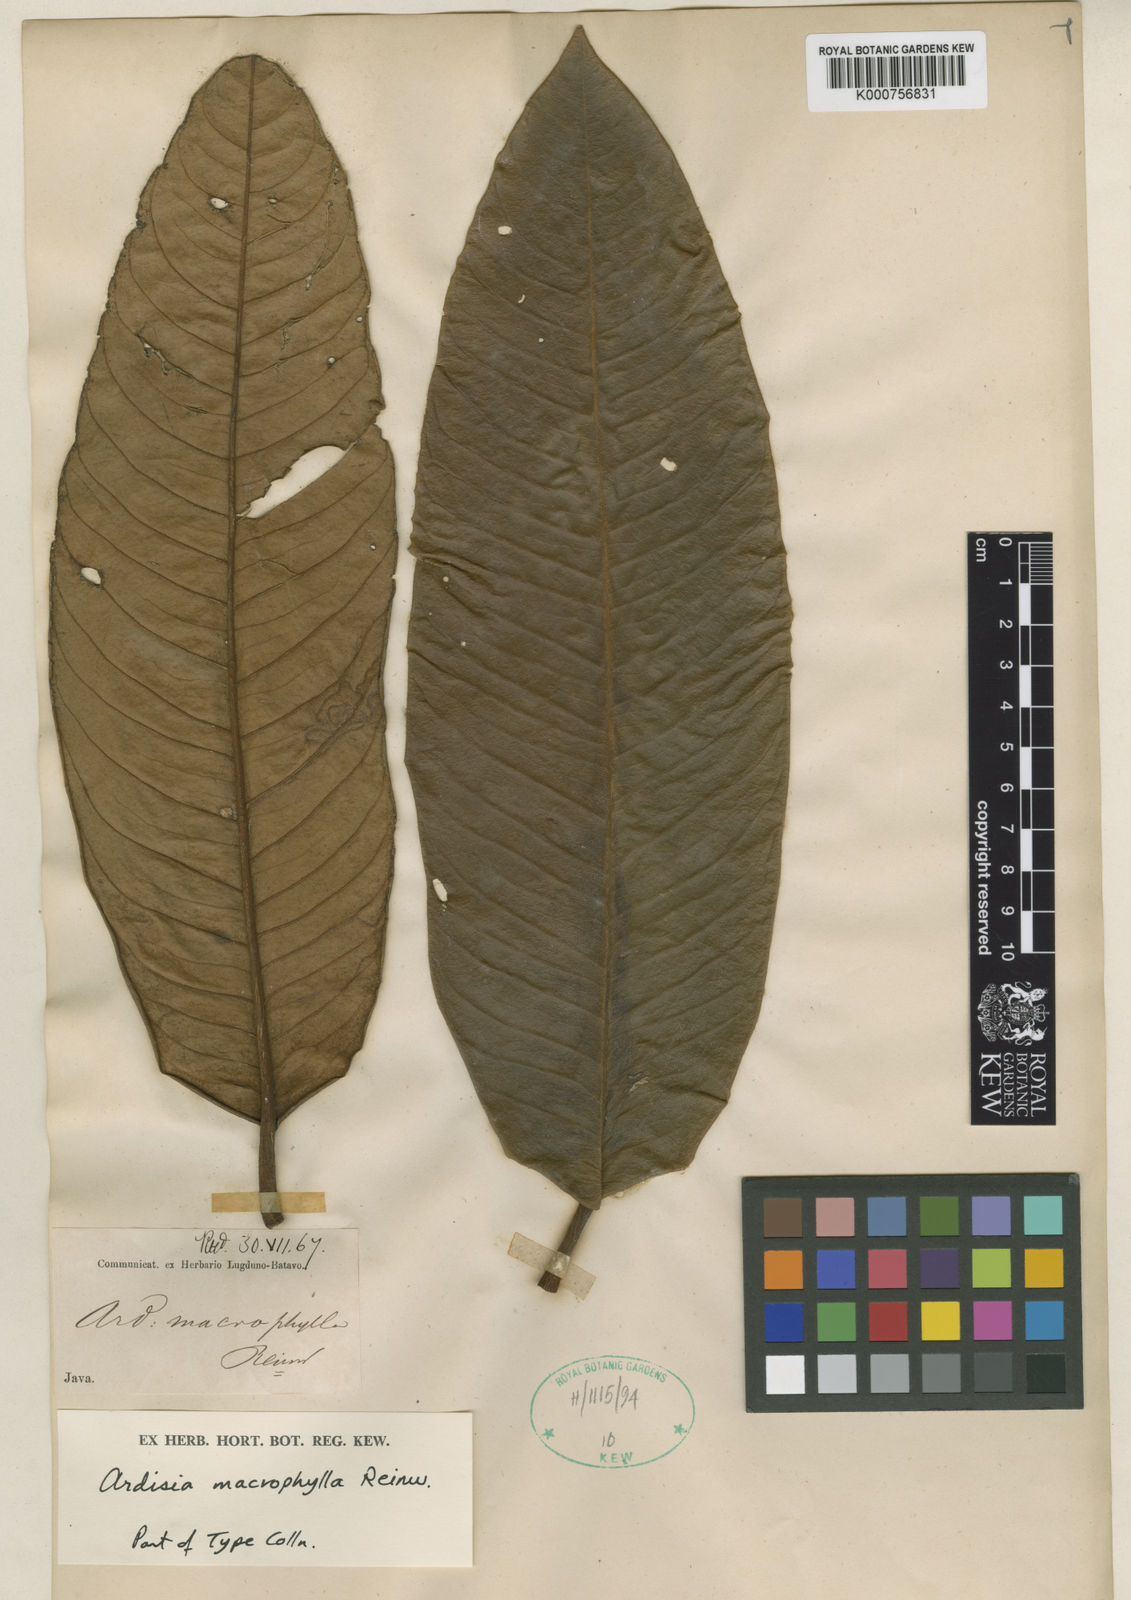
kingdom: Plantae
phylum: Tracheophyta
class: Magnoliopsida
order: Ericales
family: Primulaceae
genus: Ardisia
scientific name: Ardisia macrophylla
